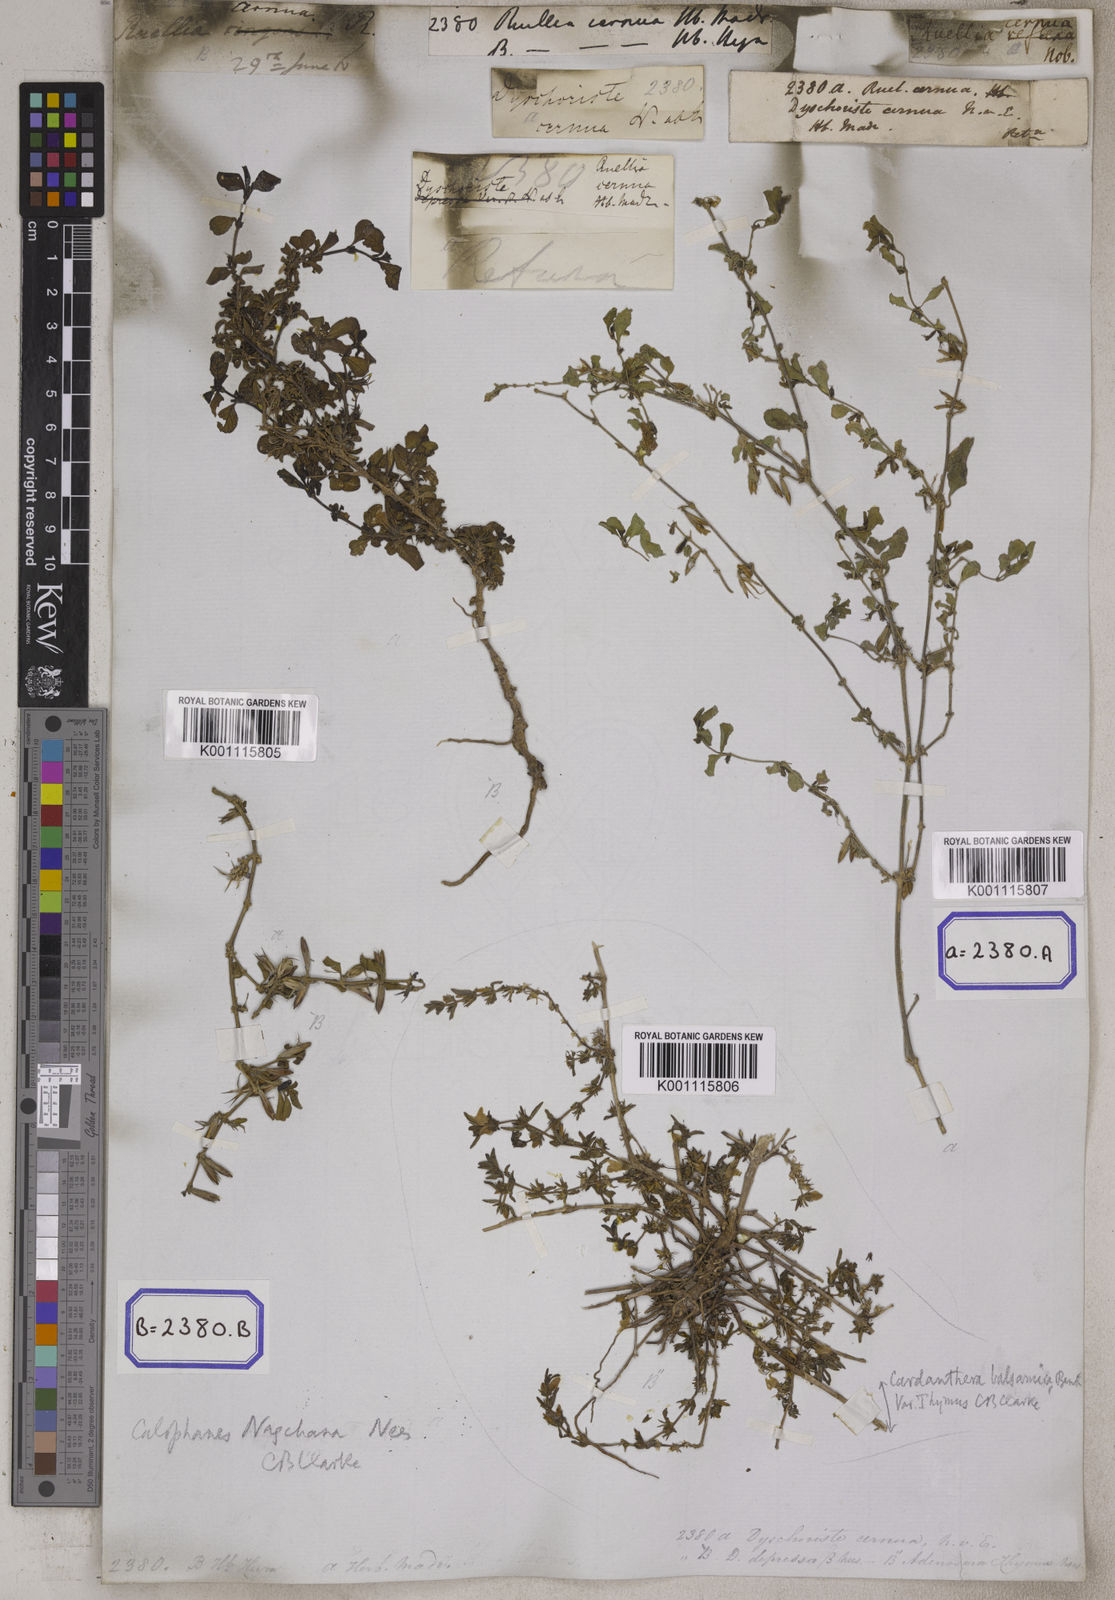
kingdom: Plantae
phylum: Tracheophyta
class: Magnoliopsida
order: Lamiales
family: Acanthaceae
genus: Ruellia
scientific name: Ruellia
